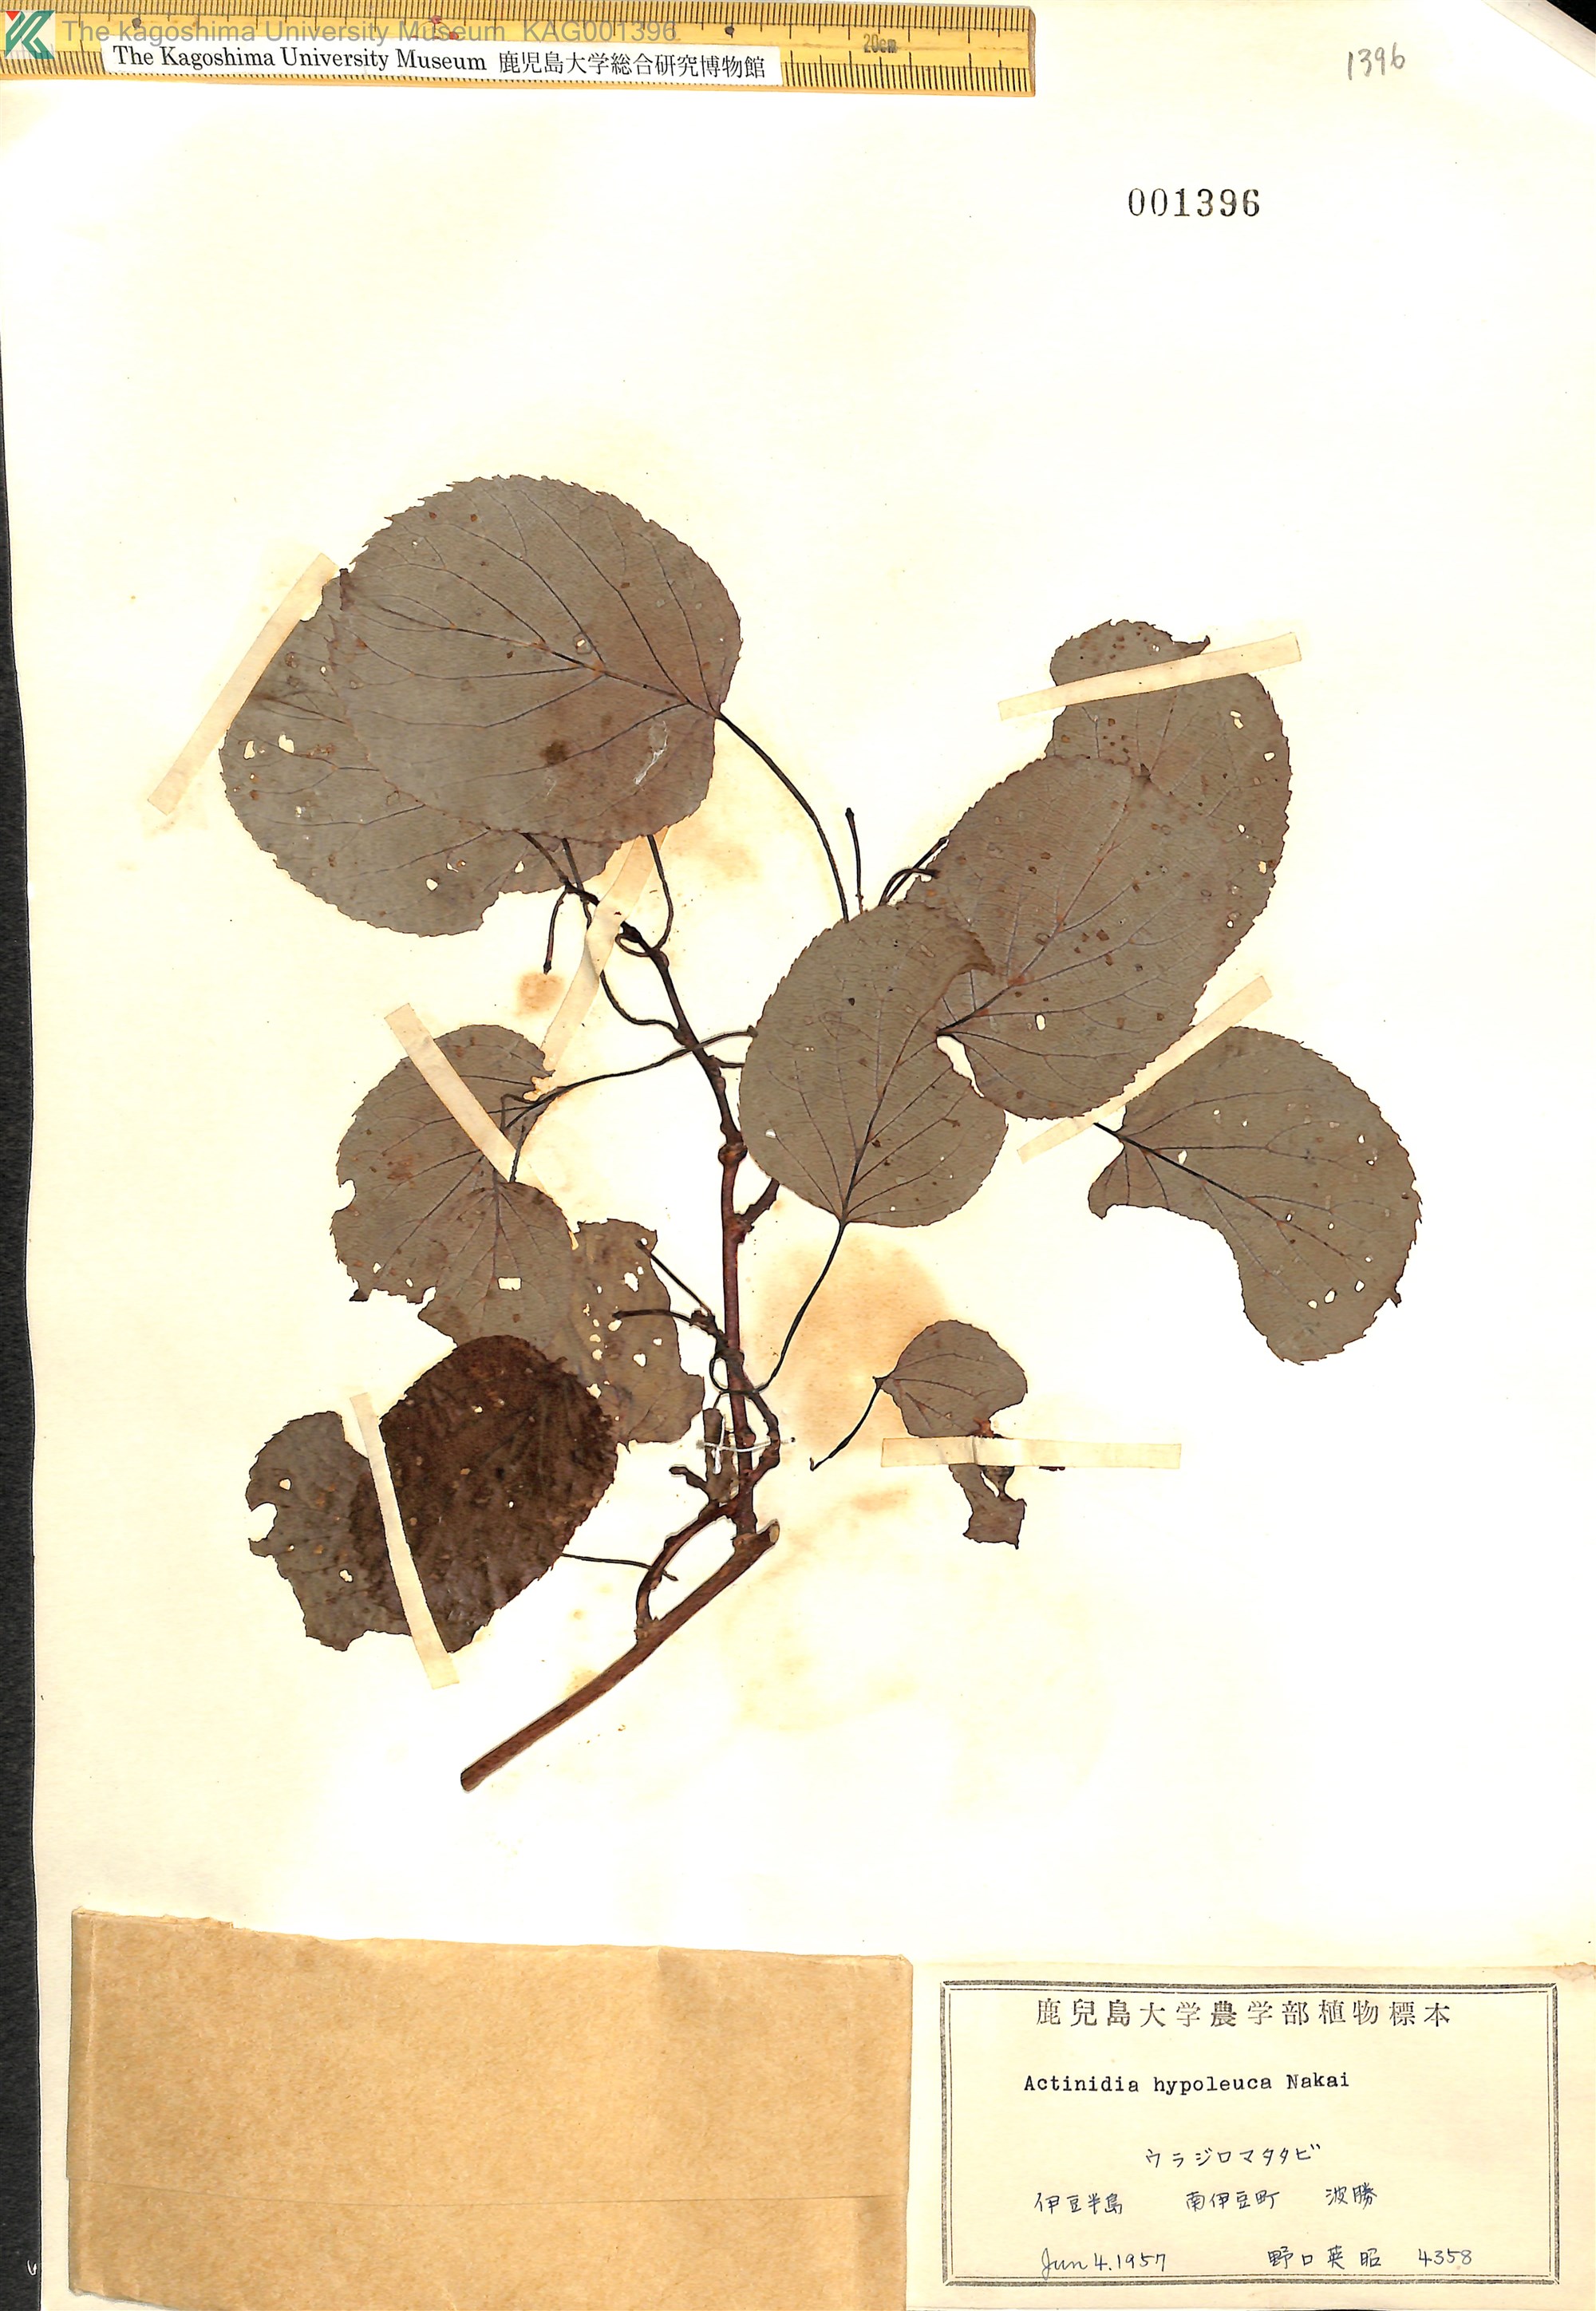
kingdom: Plantae
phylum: Tracheophyta
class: Magnoliopsida
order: Ericales
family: Actinidiaceae
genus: Actinidia
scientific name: Actinidia arguta
